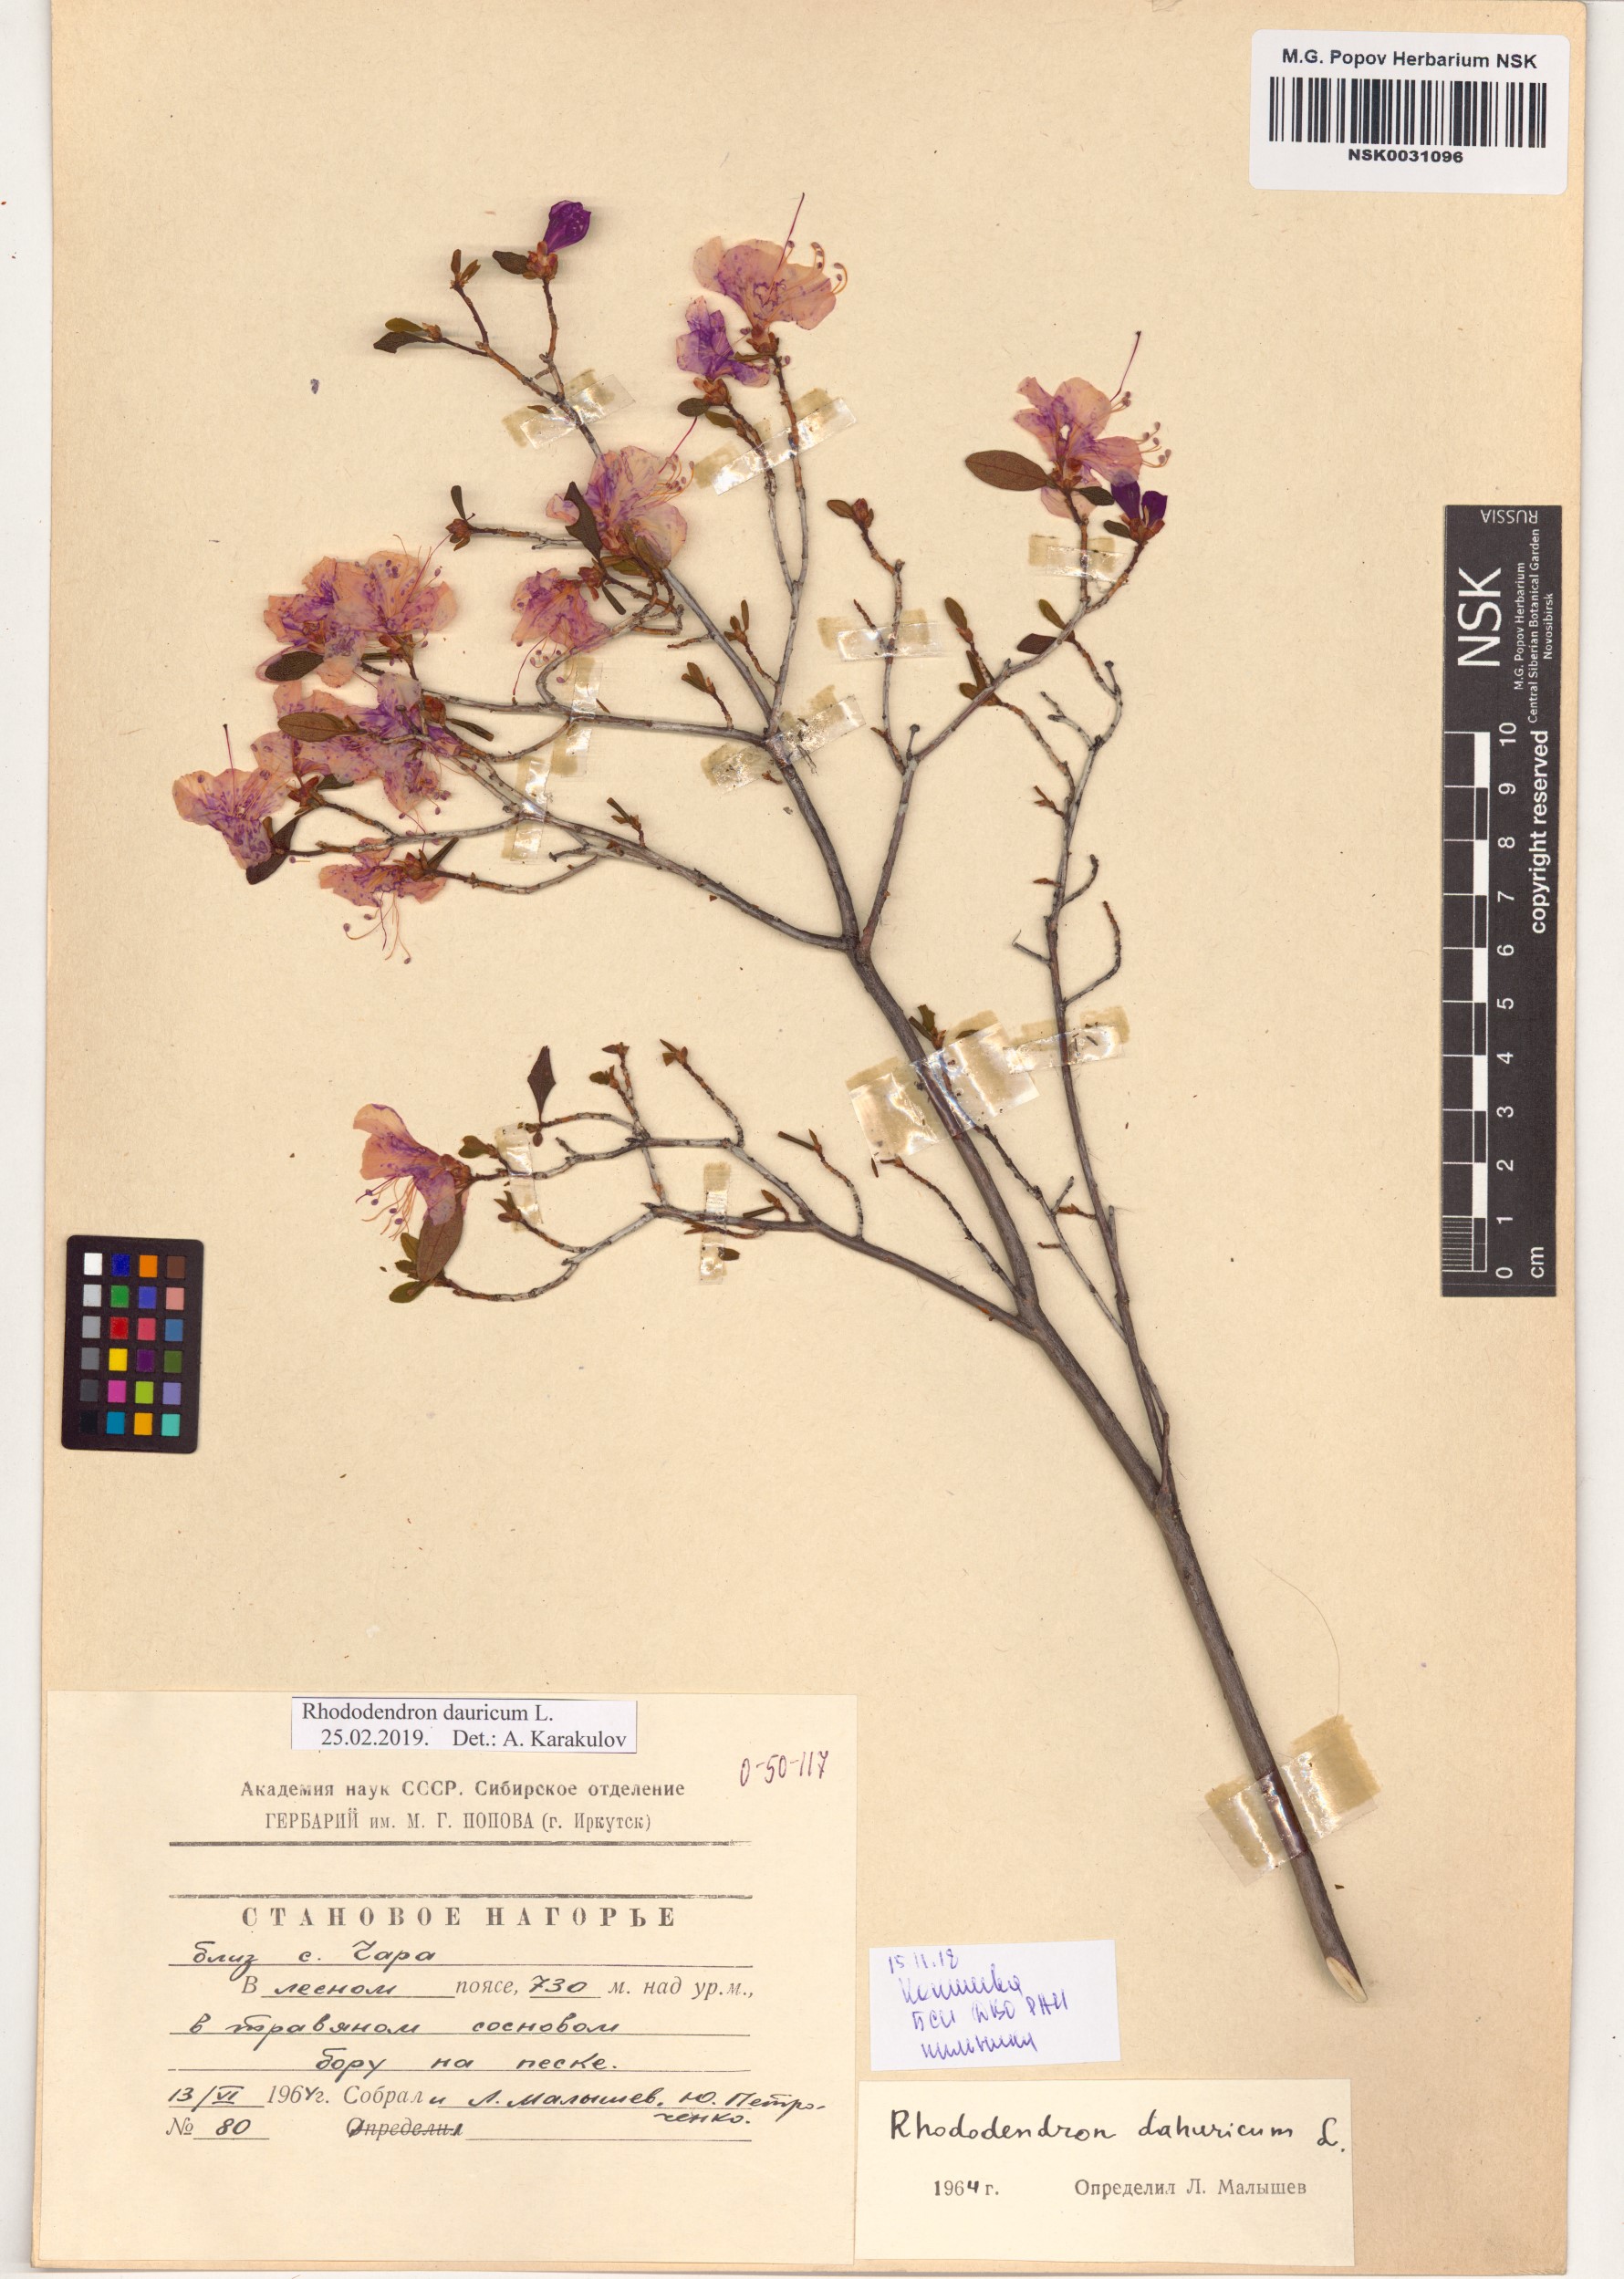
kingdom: Plantae
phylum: Tracheophyta
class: Magnoliopsida
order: Ericales
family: Ericaceae
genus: Rhododendron
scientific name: Rhododendron dauricum
